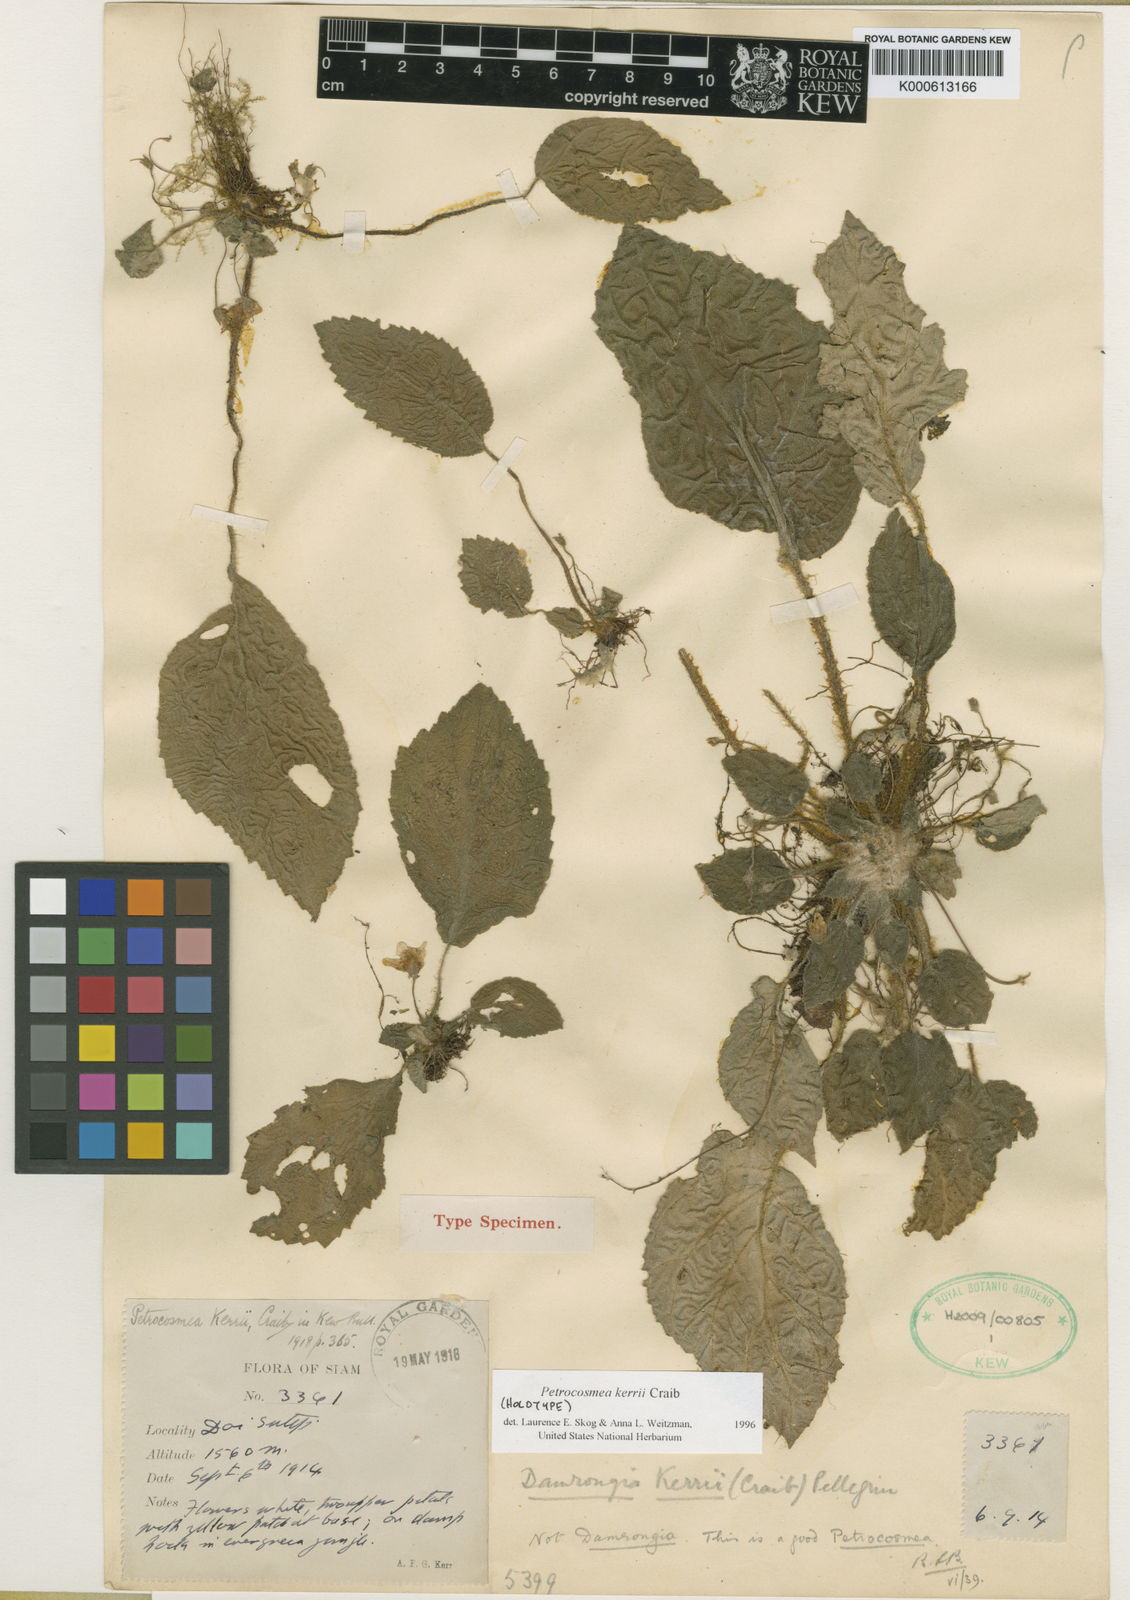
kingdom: Plantae
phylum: Tracheophyta
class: Magnoliopsida
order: Lamiales
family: Gesneriaceae
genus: Petrocosmea
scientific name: Petrocosmea kerrii
